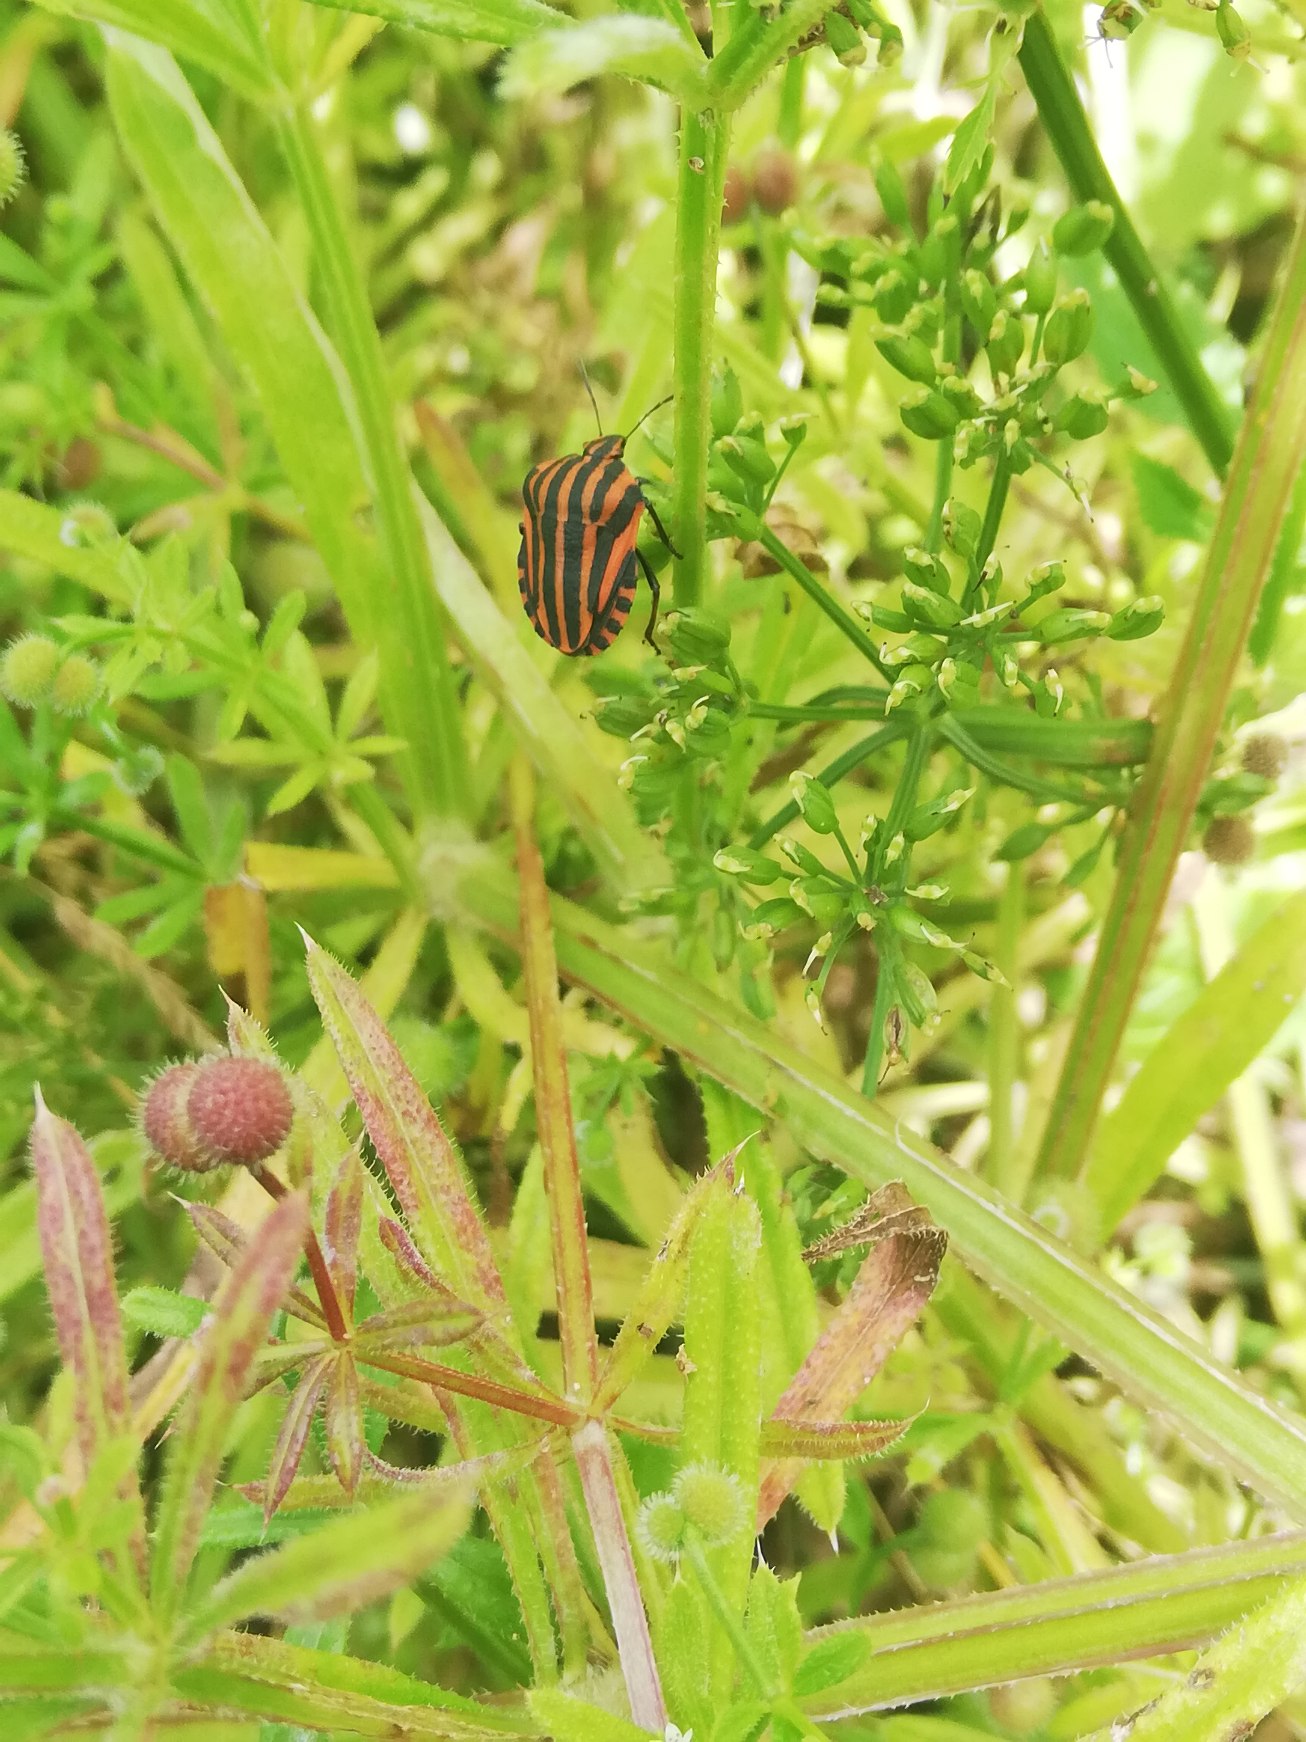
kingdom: Animalia
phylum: Arthropoda
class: Insecta
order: Hemiptera
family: Pentatomidae
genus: Graphosoma
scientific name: Graphosoma italicum
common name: Stribetæge
